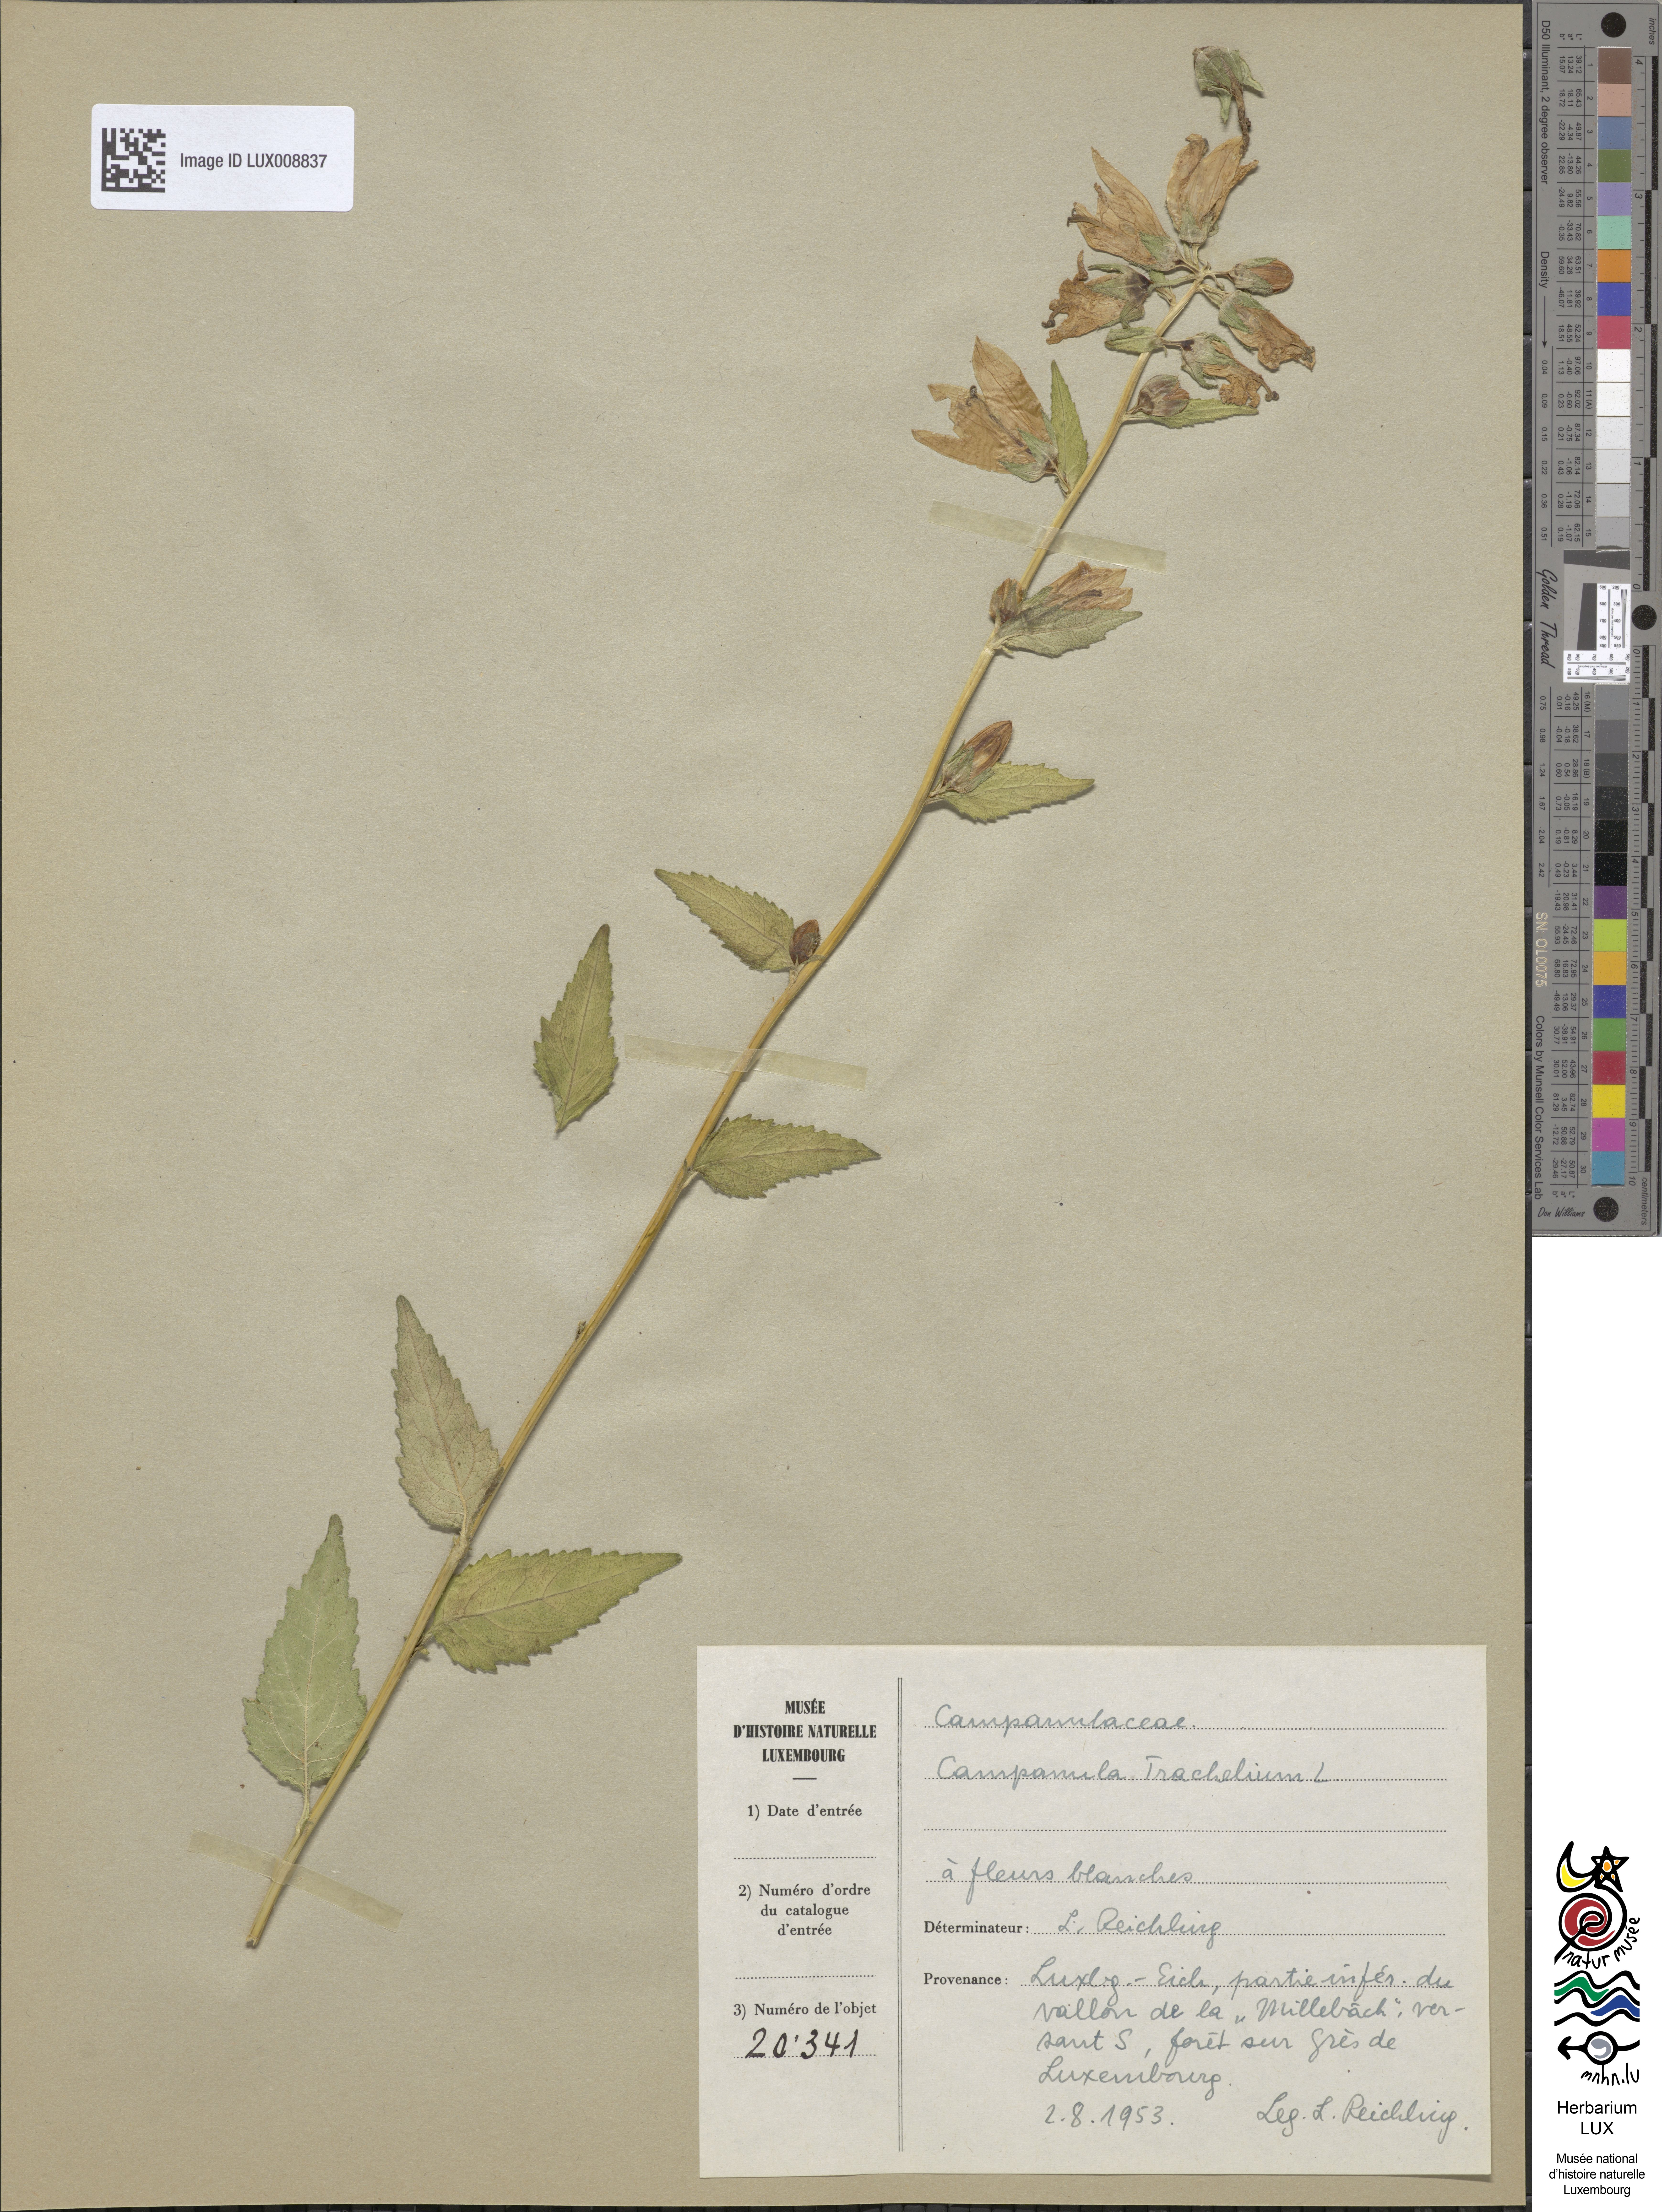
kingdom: Plantae
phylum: Tracheophyta
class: Magnoliopsida
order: Asterales
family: Campanulaceae
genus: Campanula
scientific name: Campanula trachelium
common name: Nettle-leaved bellflower
